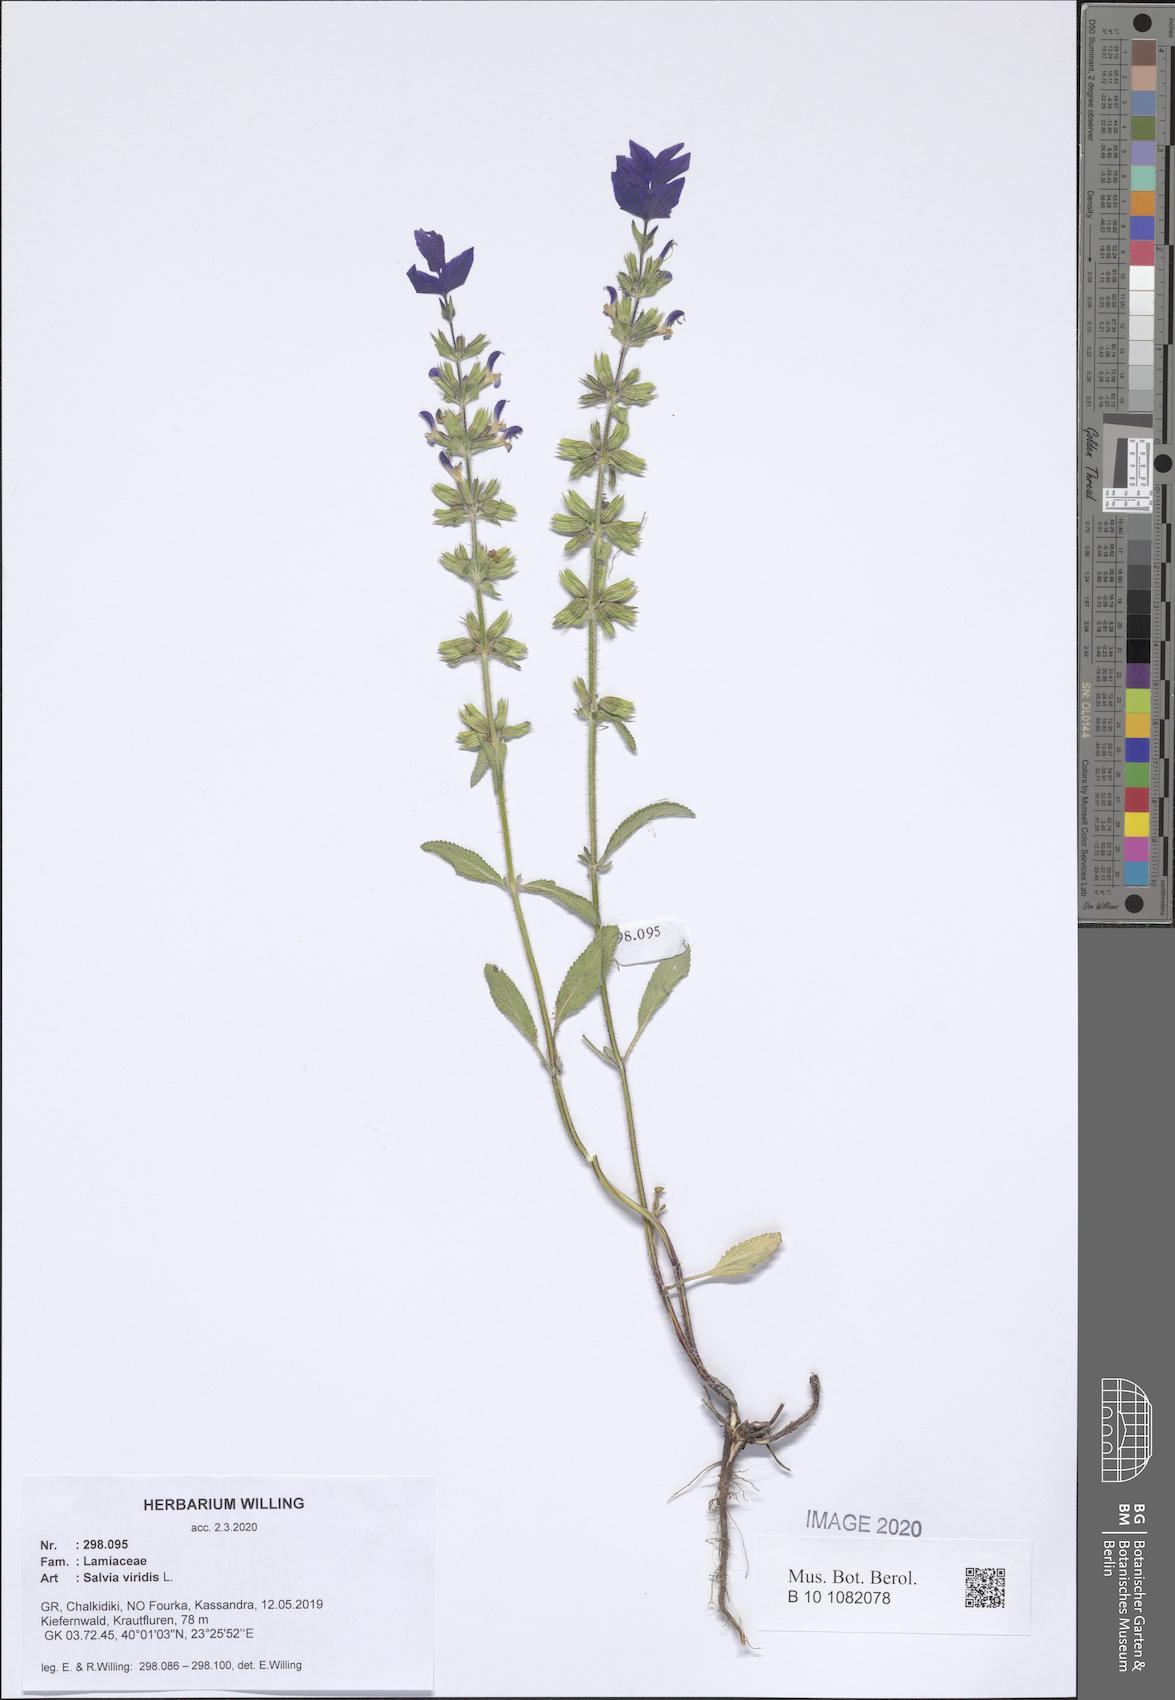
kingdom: Plantae
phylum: Tracheophyta
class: Magnoliopsida
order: Lamiales
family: Lamiaceae
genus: Salvia
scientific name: Salvia viridis
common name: Annual clary
